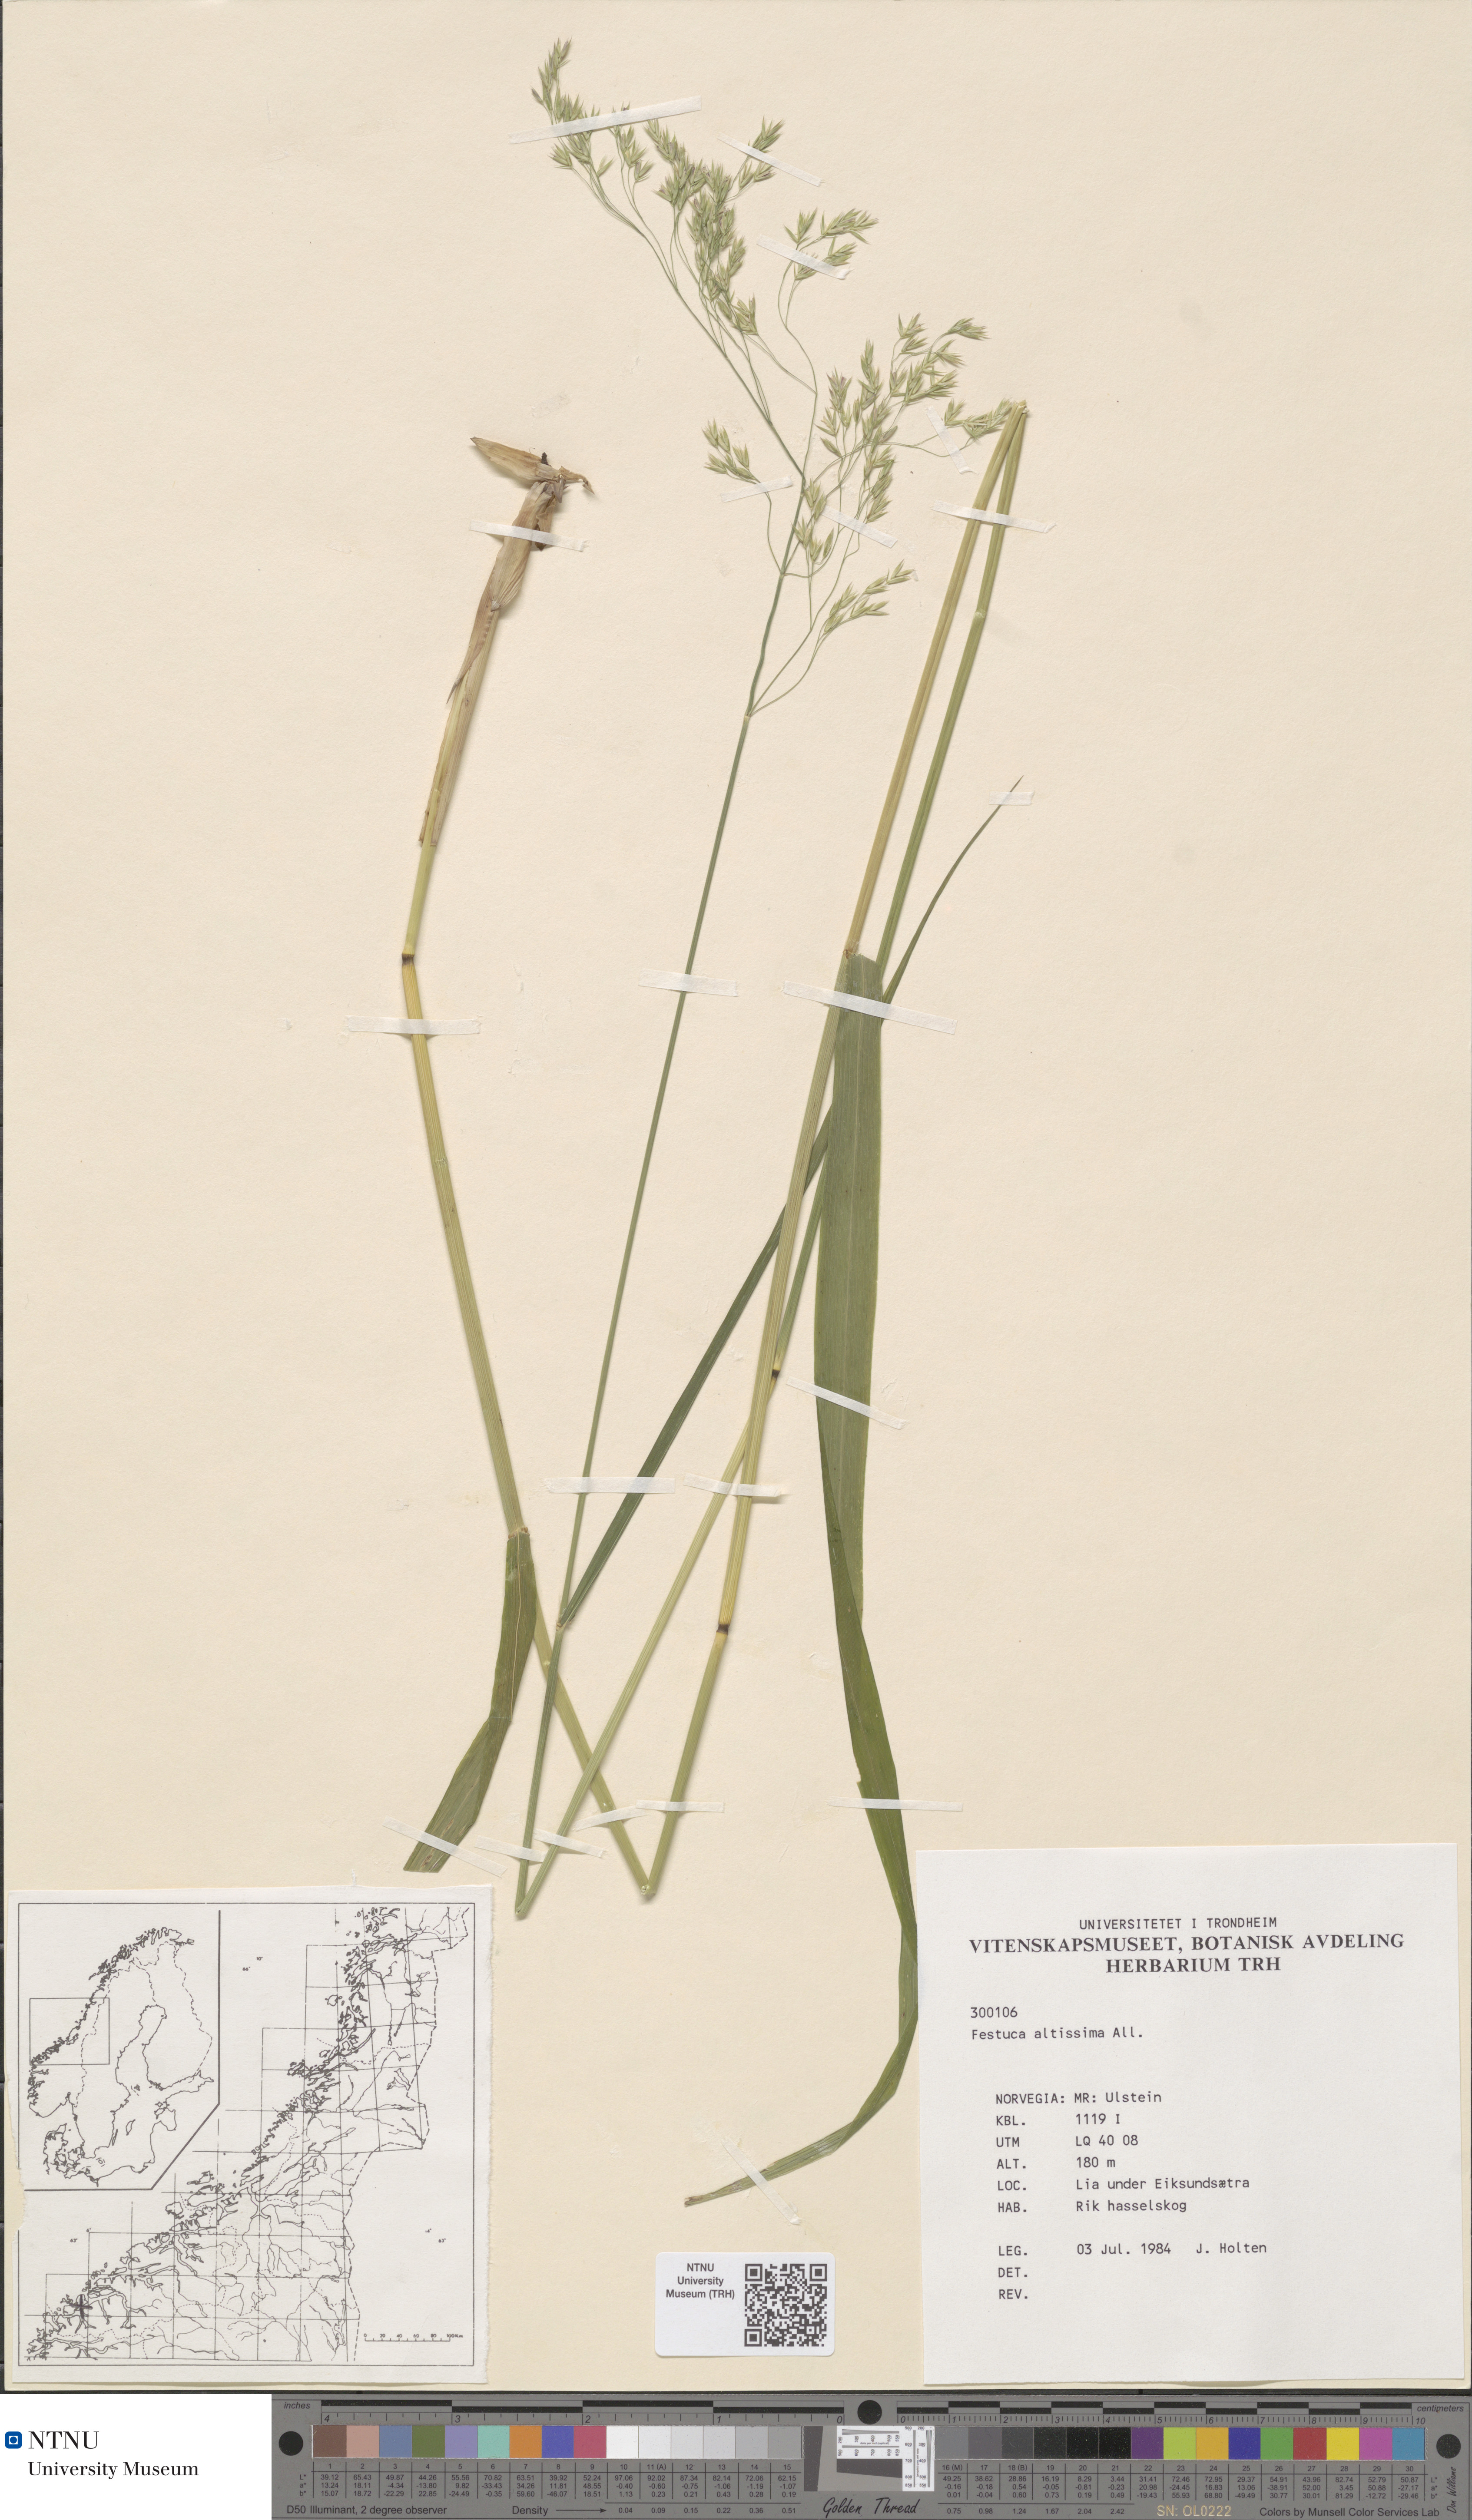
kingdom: Plantae
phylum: Tracheophyta
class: Liliopsida
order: Poales
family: Poaceae
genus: Festuca
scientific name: Festuca altissima
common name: Wood fescue
